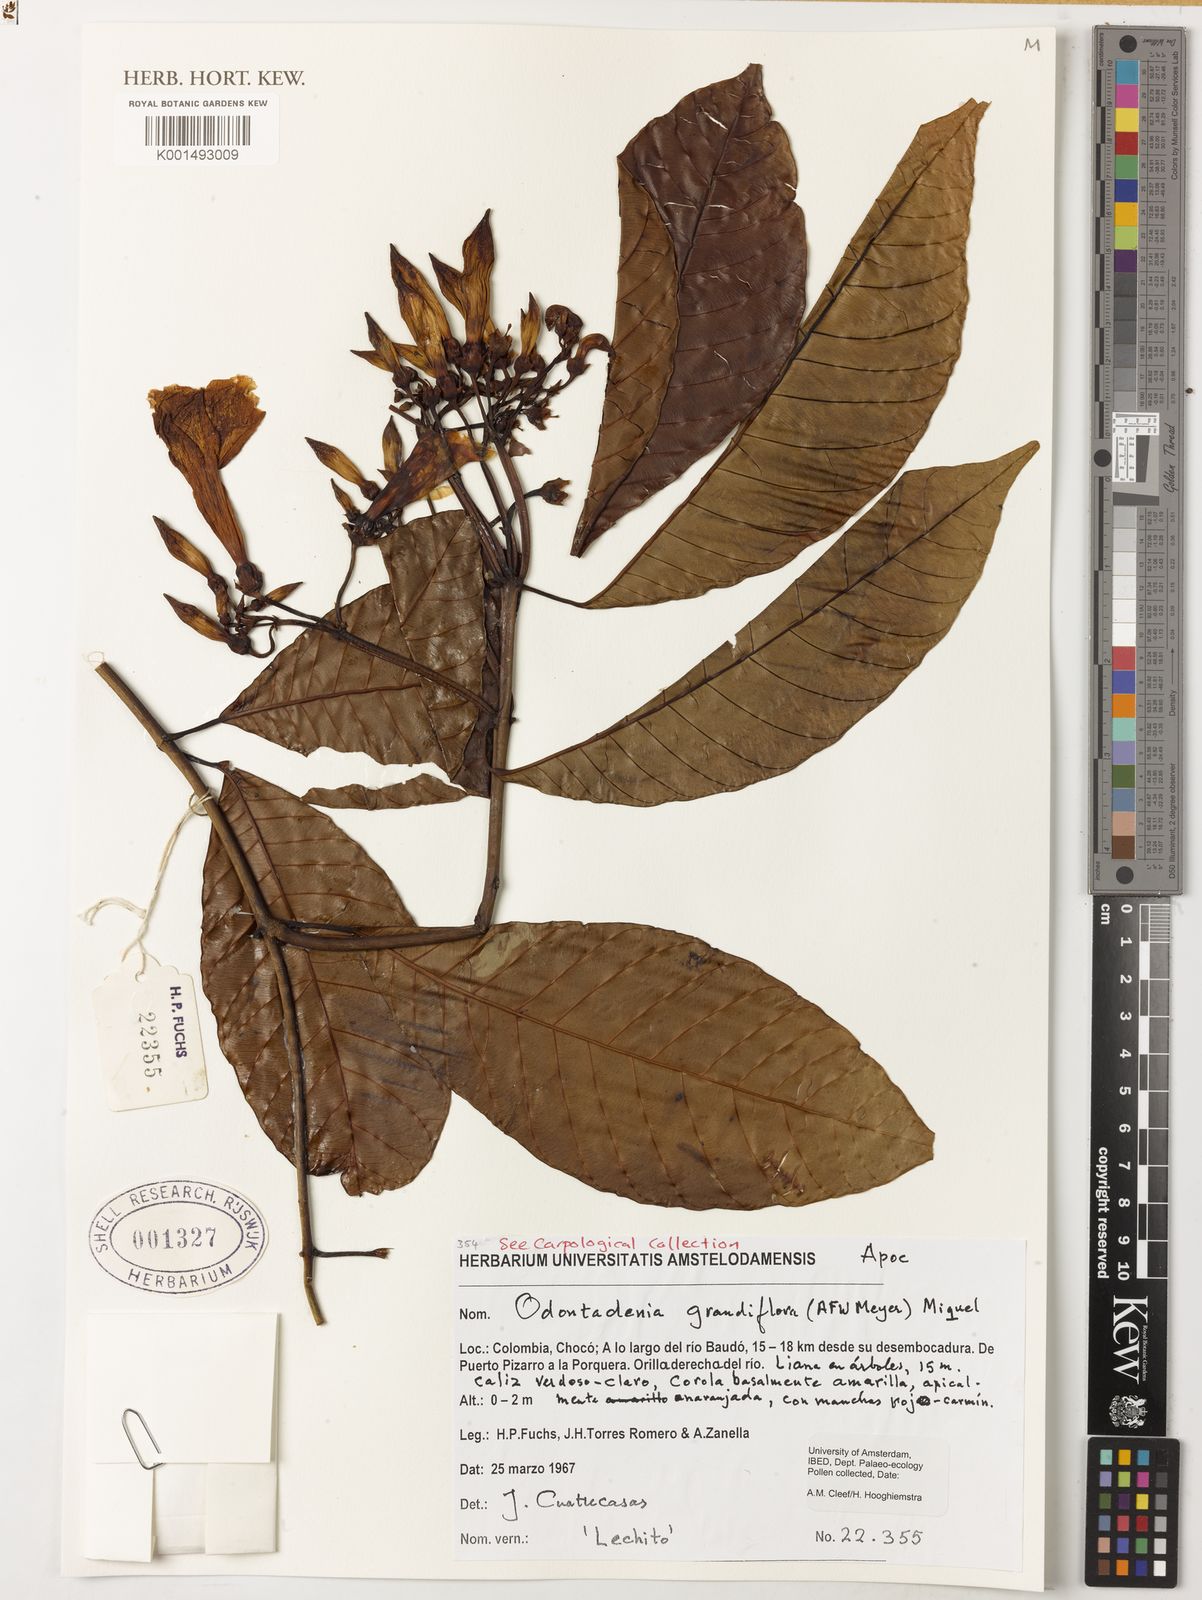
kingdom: Plantae
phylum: Tracheophyta
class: Magnoliopsida
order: Gentianales
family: Apocynaceae
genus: Odontadenia
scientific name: Odontadenia semidigyna
